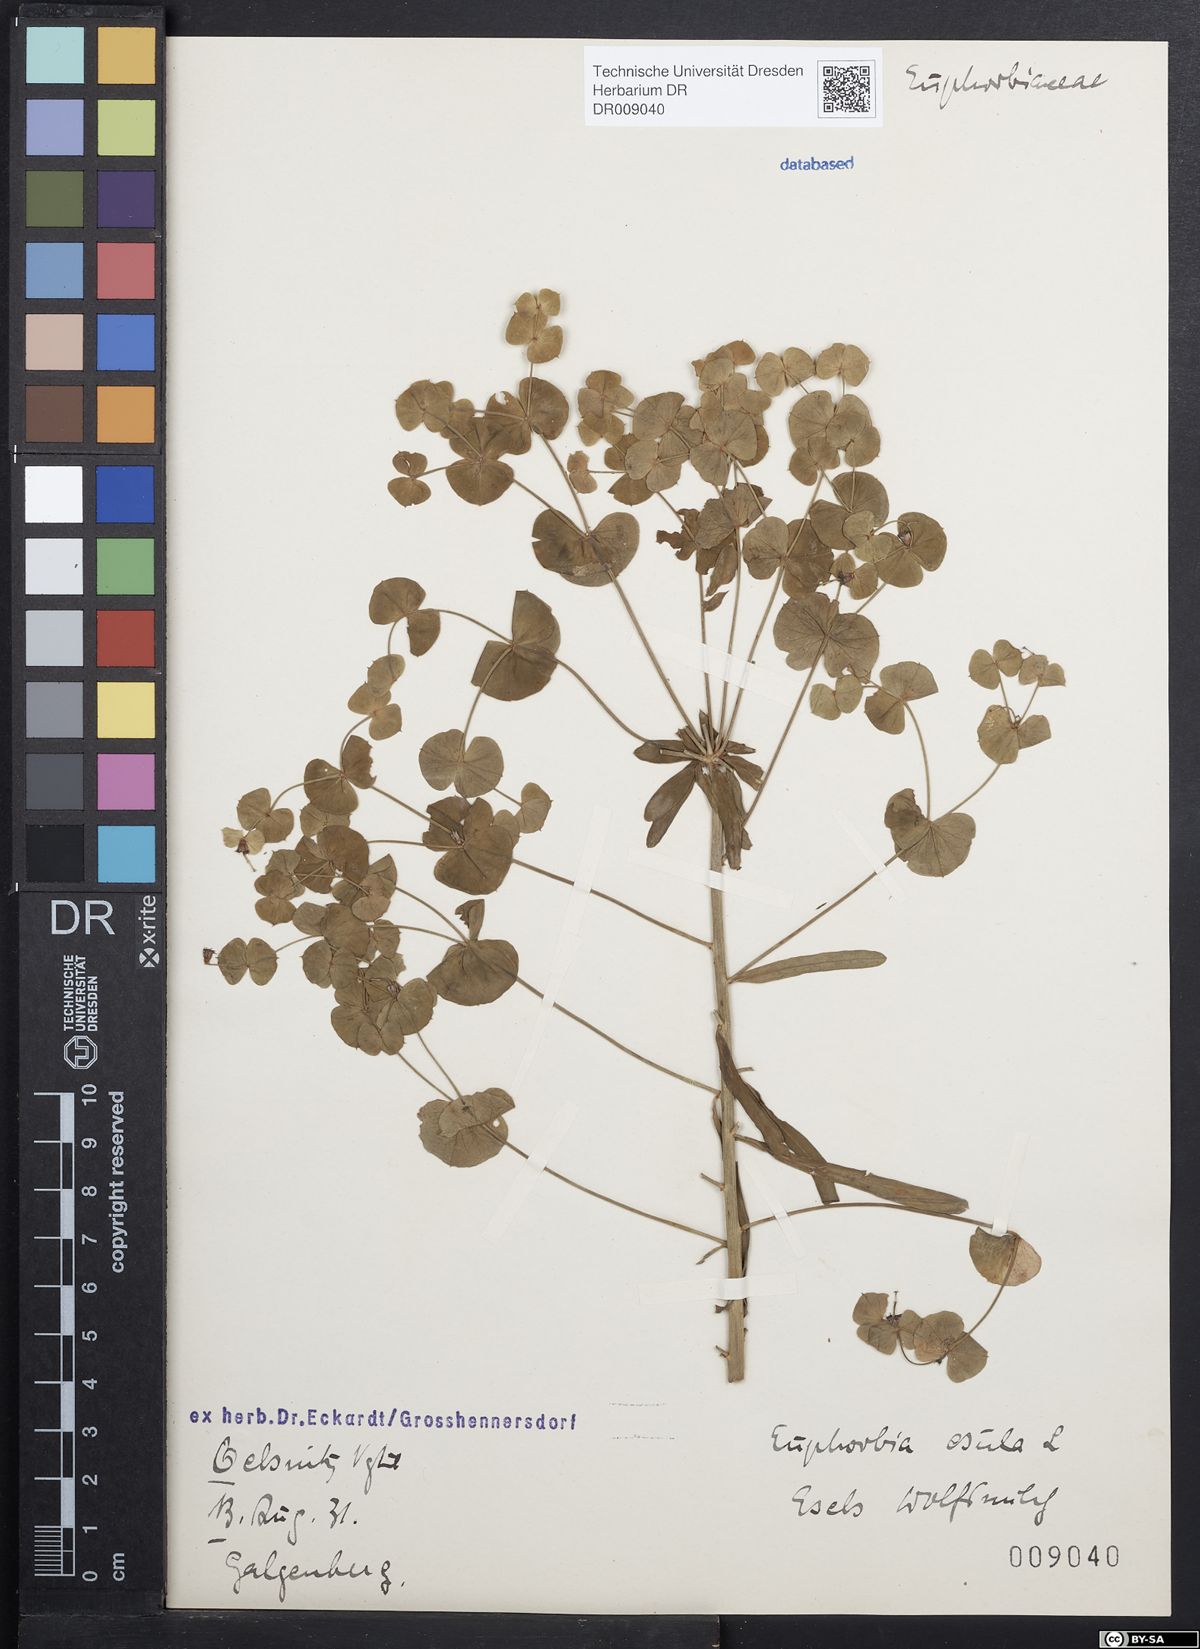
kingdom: Plantae
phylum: Tracheophyta
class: Magnoliopsida
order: Malpighiales
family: Euphorbiaceae
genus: Euphorbia
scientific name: Euphorbia esula
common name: Leafy spurge
